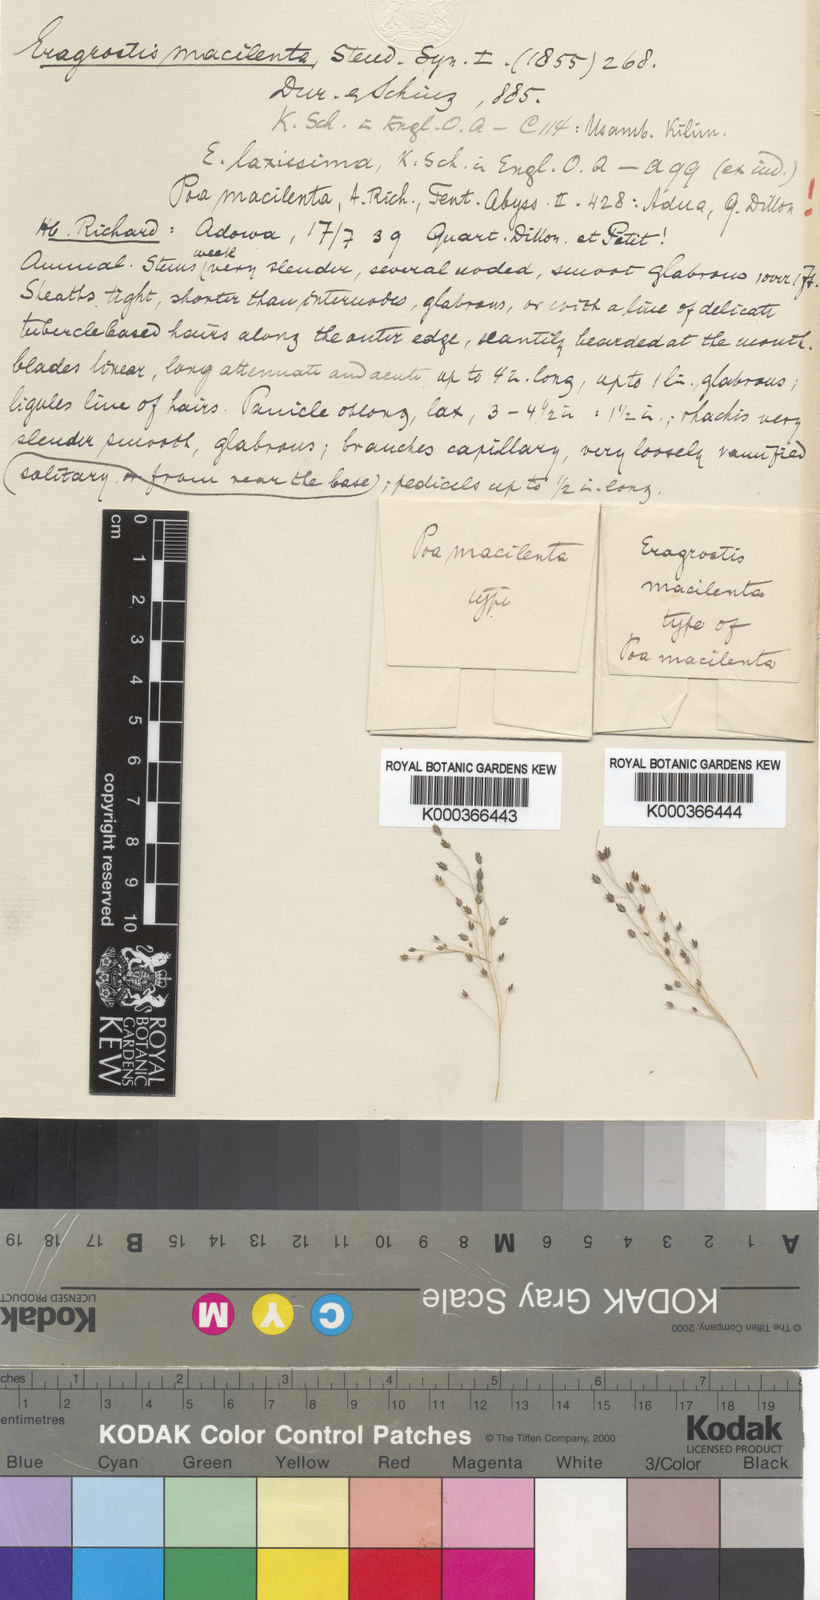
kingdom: Plantae
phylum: Tracheophyta
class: Liliopsida
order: Poales
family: Poaceae
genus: Eragrostis
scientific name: Eragrostis macilenta
